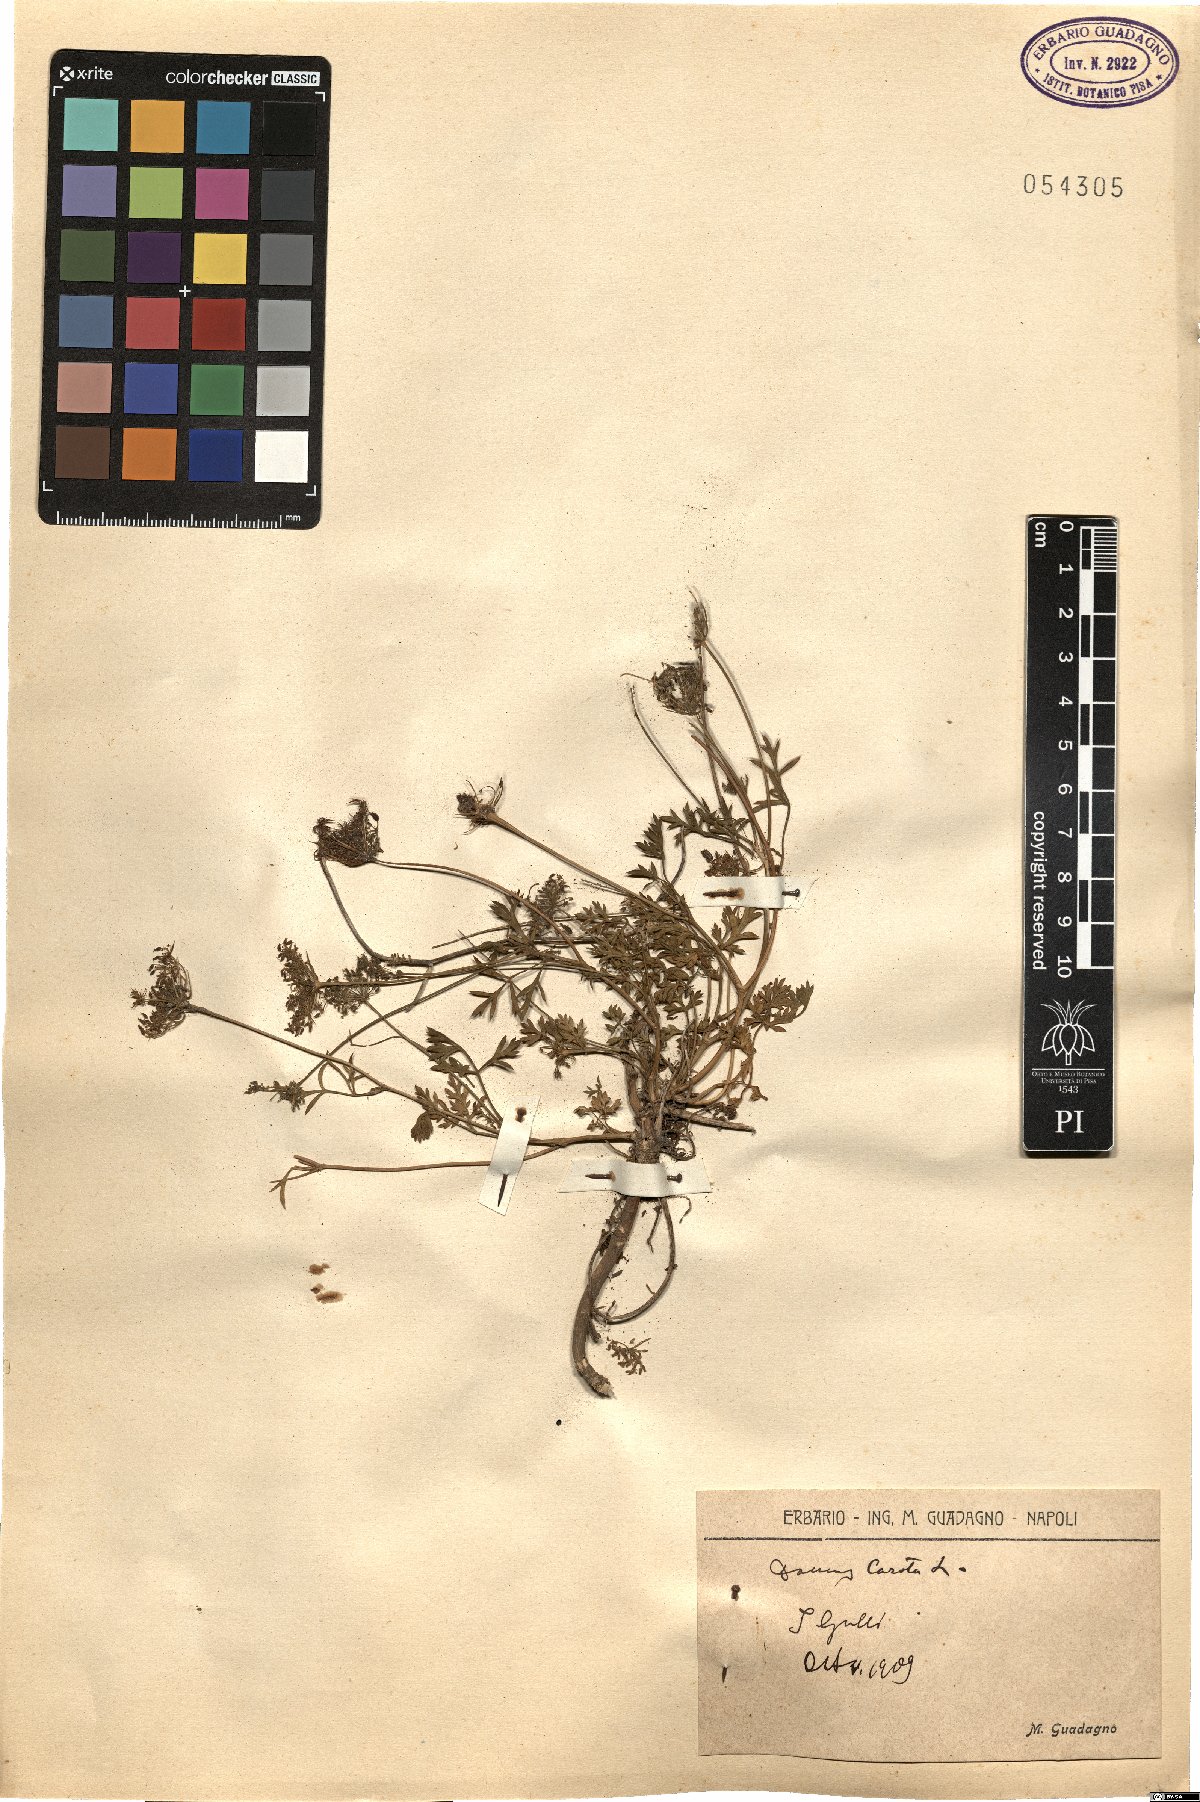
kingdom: Plantae
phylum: Tracheophyta
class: Magnoliopsida
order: Apiales
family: Apiaceae
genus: Daucus
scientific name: Daucus carota
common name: Wild carrot
